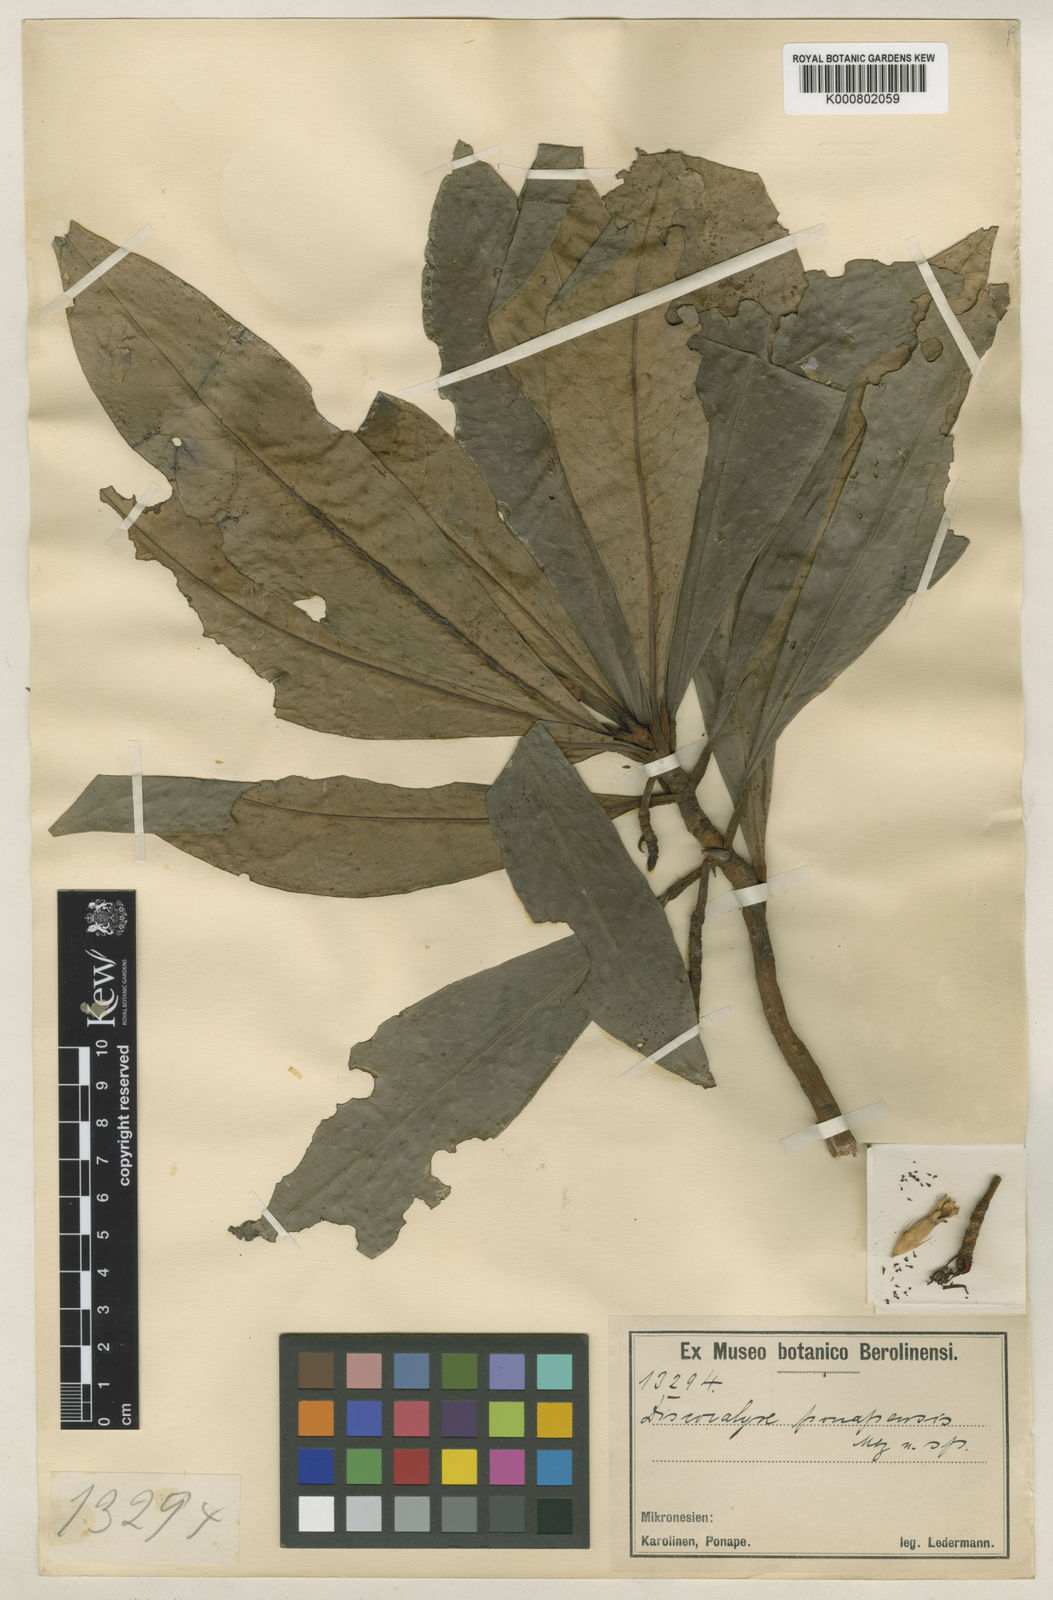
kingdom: Plantae
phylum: Tracheophyta
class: Magnoliopsida
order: Ericales
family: Primulaceae
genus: Discocalyx
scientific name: Discocalyx ponapensis
